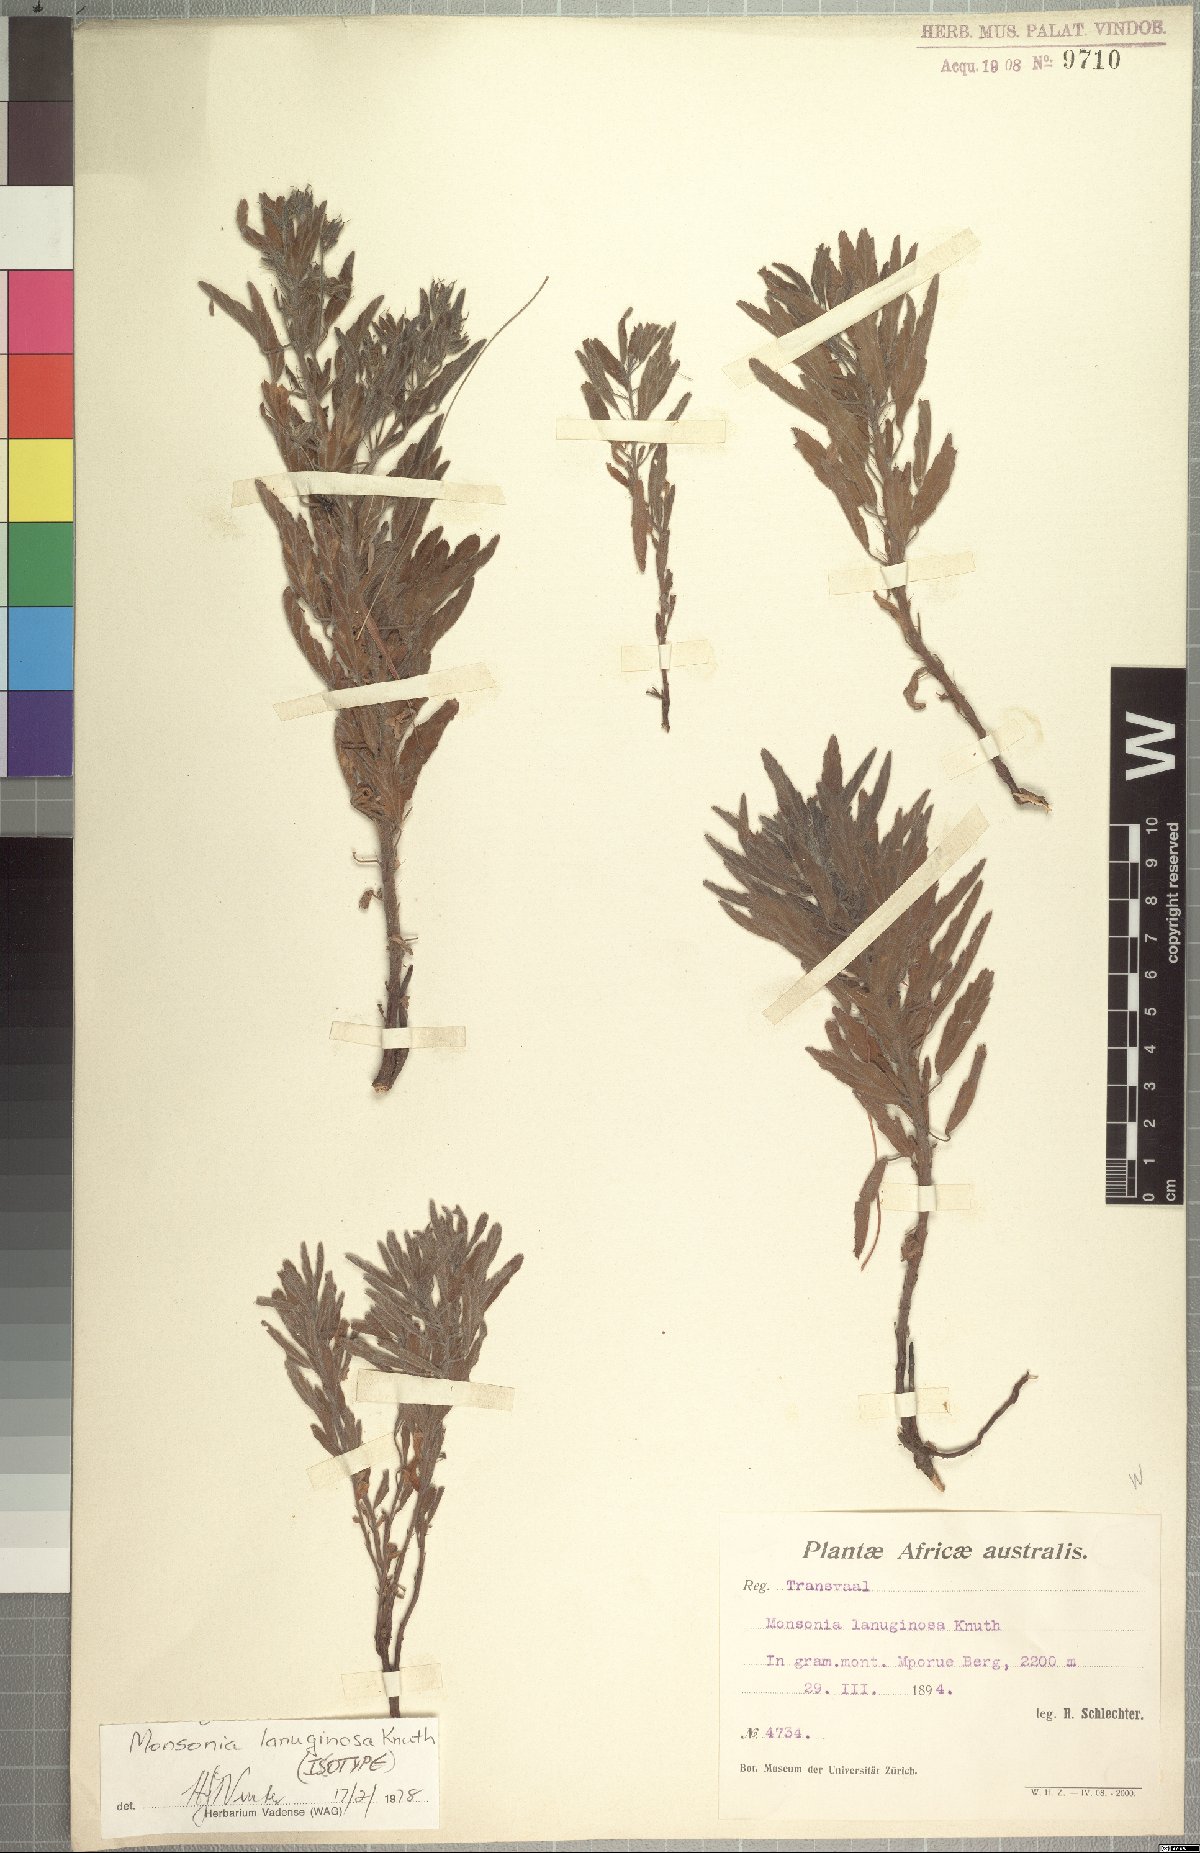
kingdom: Plantae
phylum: Tracheophyta
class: Magnoliopsida
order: Geraniales
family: Geraniaceae
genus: Monsonia
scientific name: Monsonia lanuginosa
